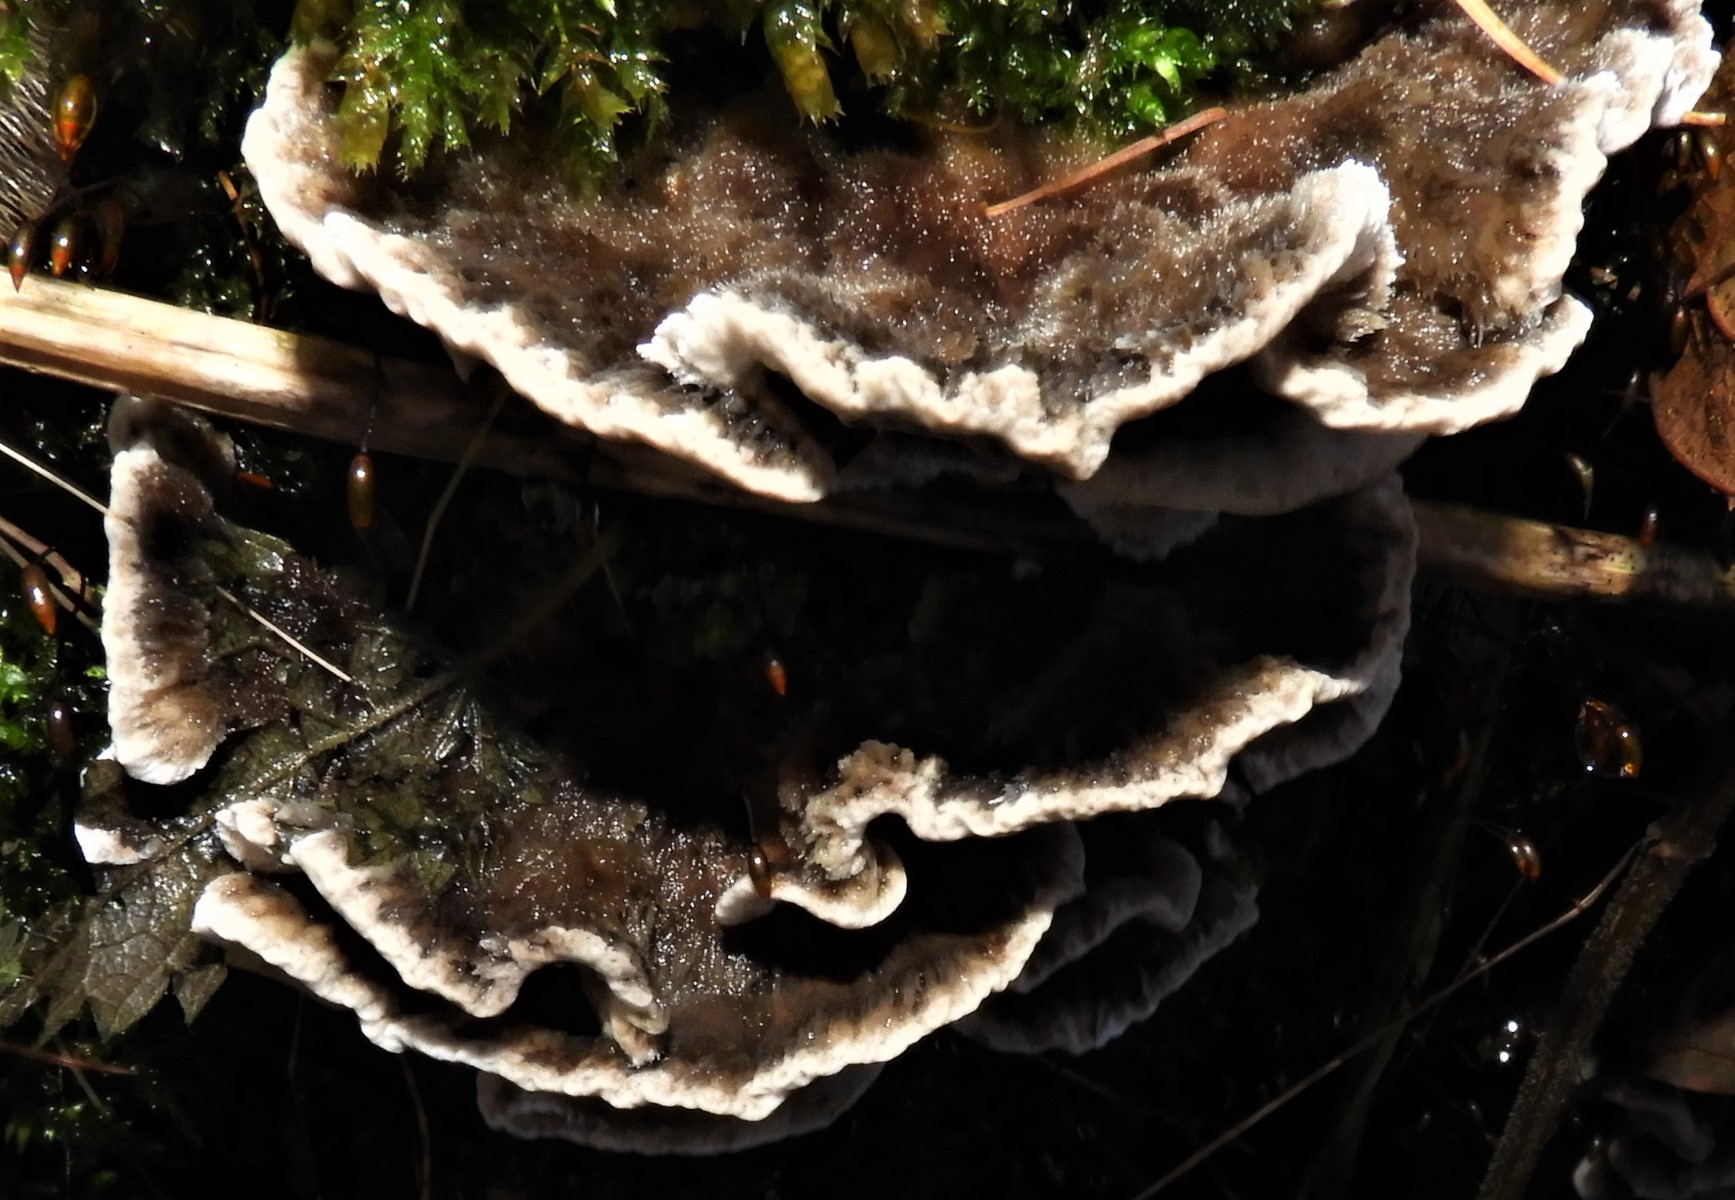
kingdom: Fungi
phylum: Basidiomycota
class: Agaricomycetes
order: Polyporales
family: Phanerochaetaceae
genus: Bjerkandera
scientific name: Bjerkandera adusta
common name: sveden sodporesvamp
